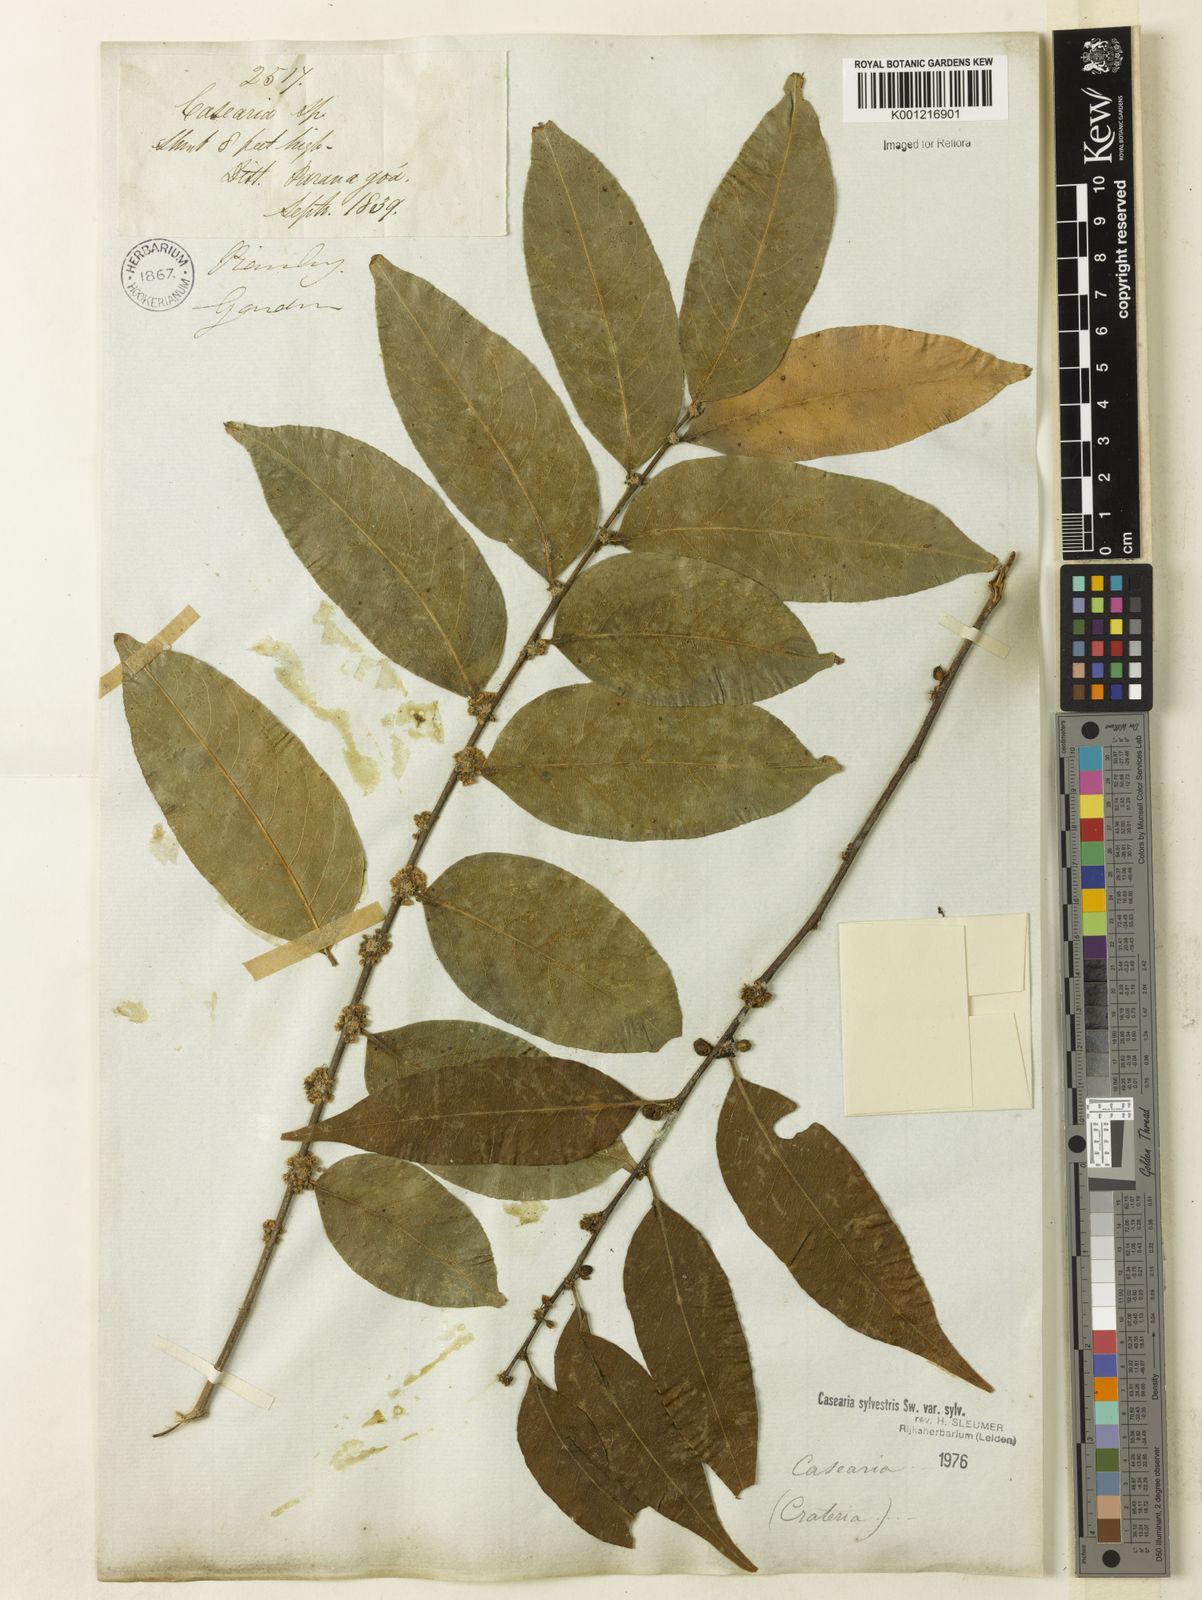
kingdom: Plantae
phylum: Tracheophyta
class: Magnoliopsida
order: Malpighiales
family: Salicaceae
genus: Casearia
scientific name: Casearia sylvestris
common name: Wild sage
